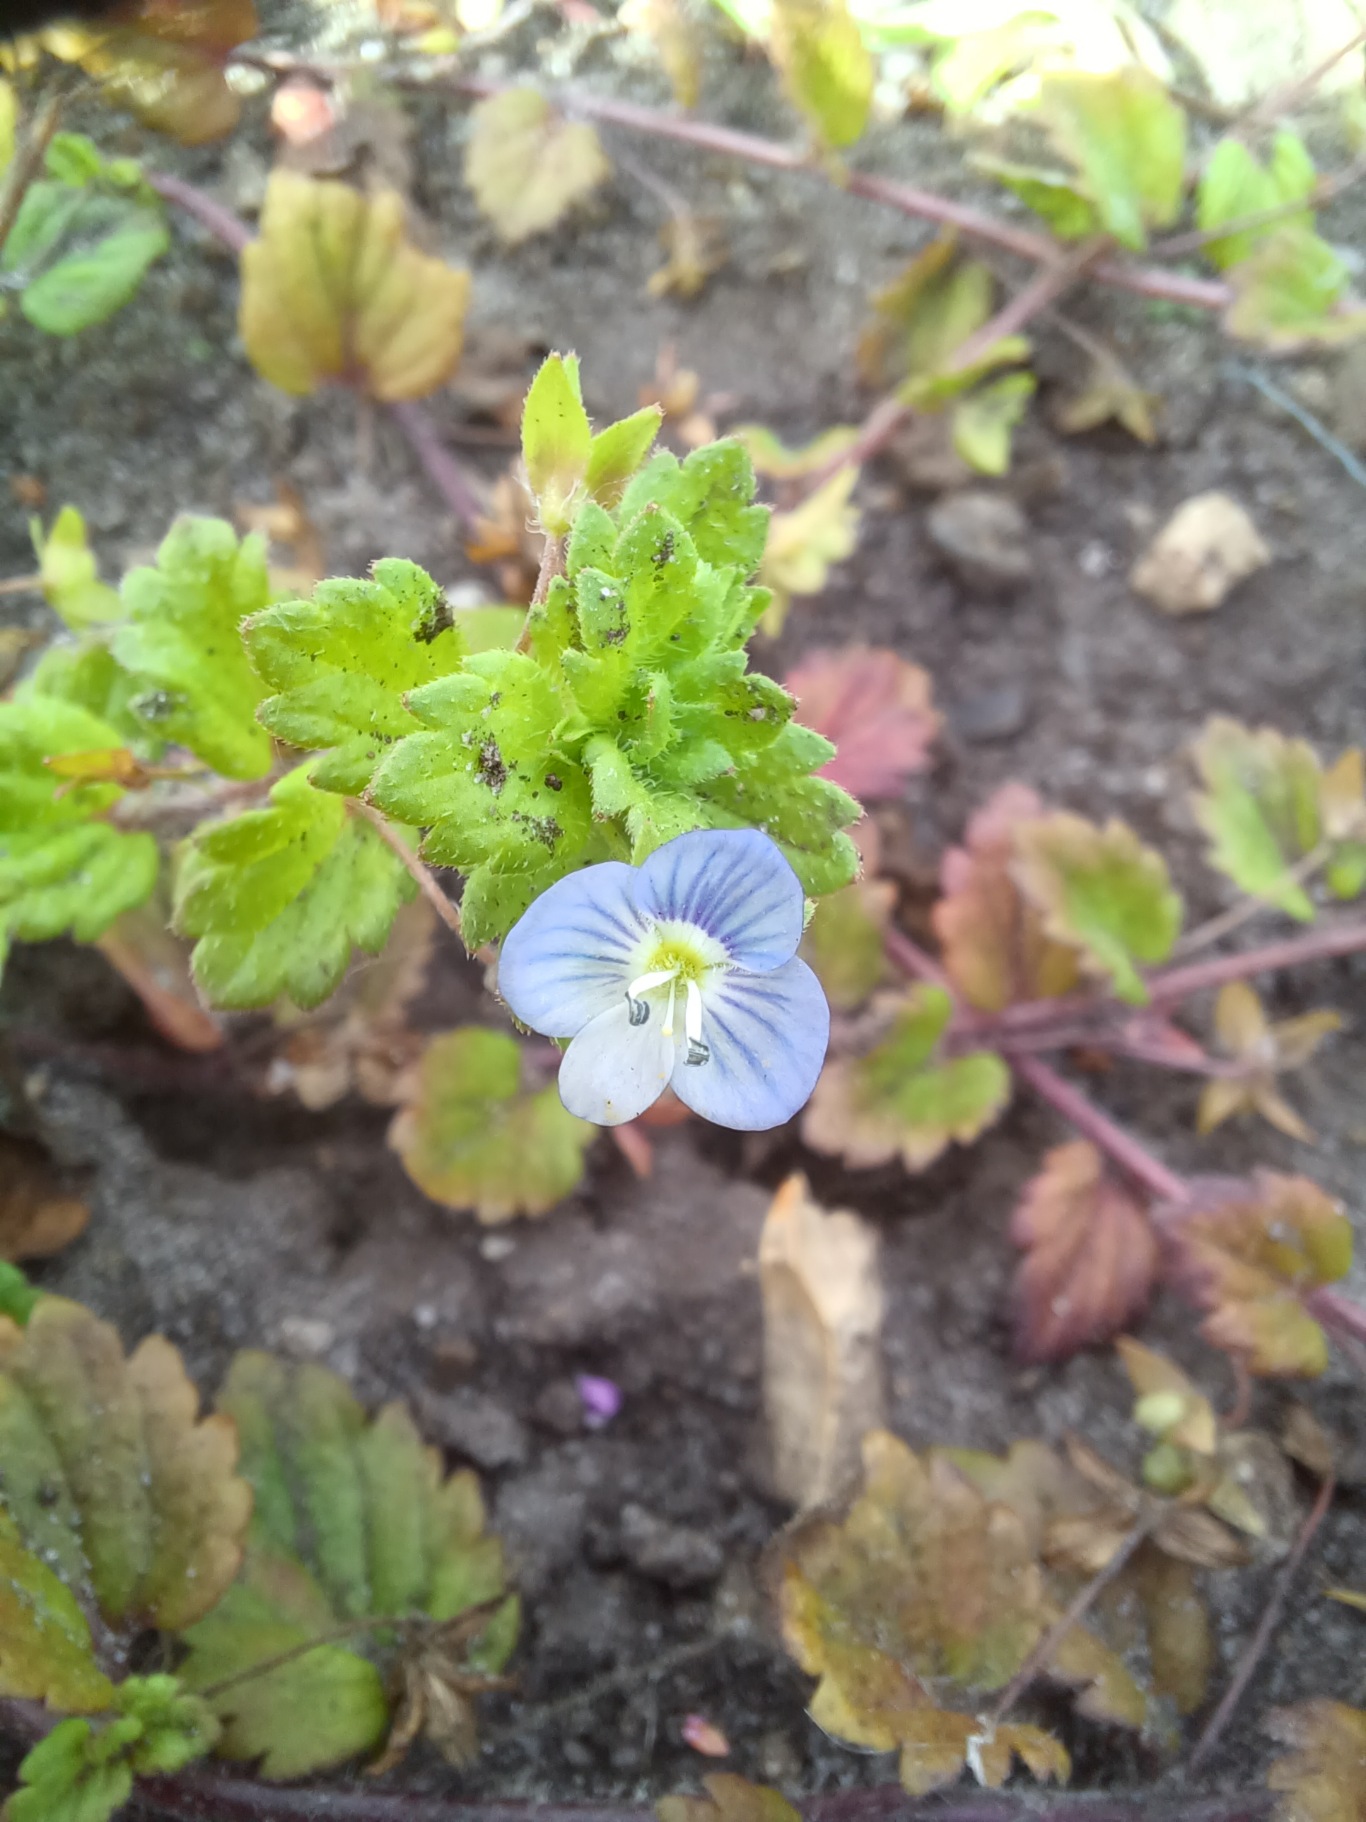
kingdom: Plantae
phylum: Tracheophyta
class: Magnoliopsida
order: Lamiales
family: Plantaginaceae
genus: Veronica
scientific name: Veronica persica
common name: Storkronet ærenpris
